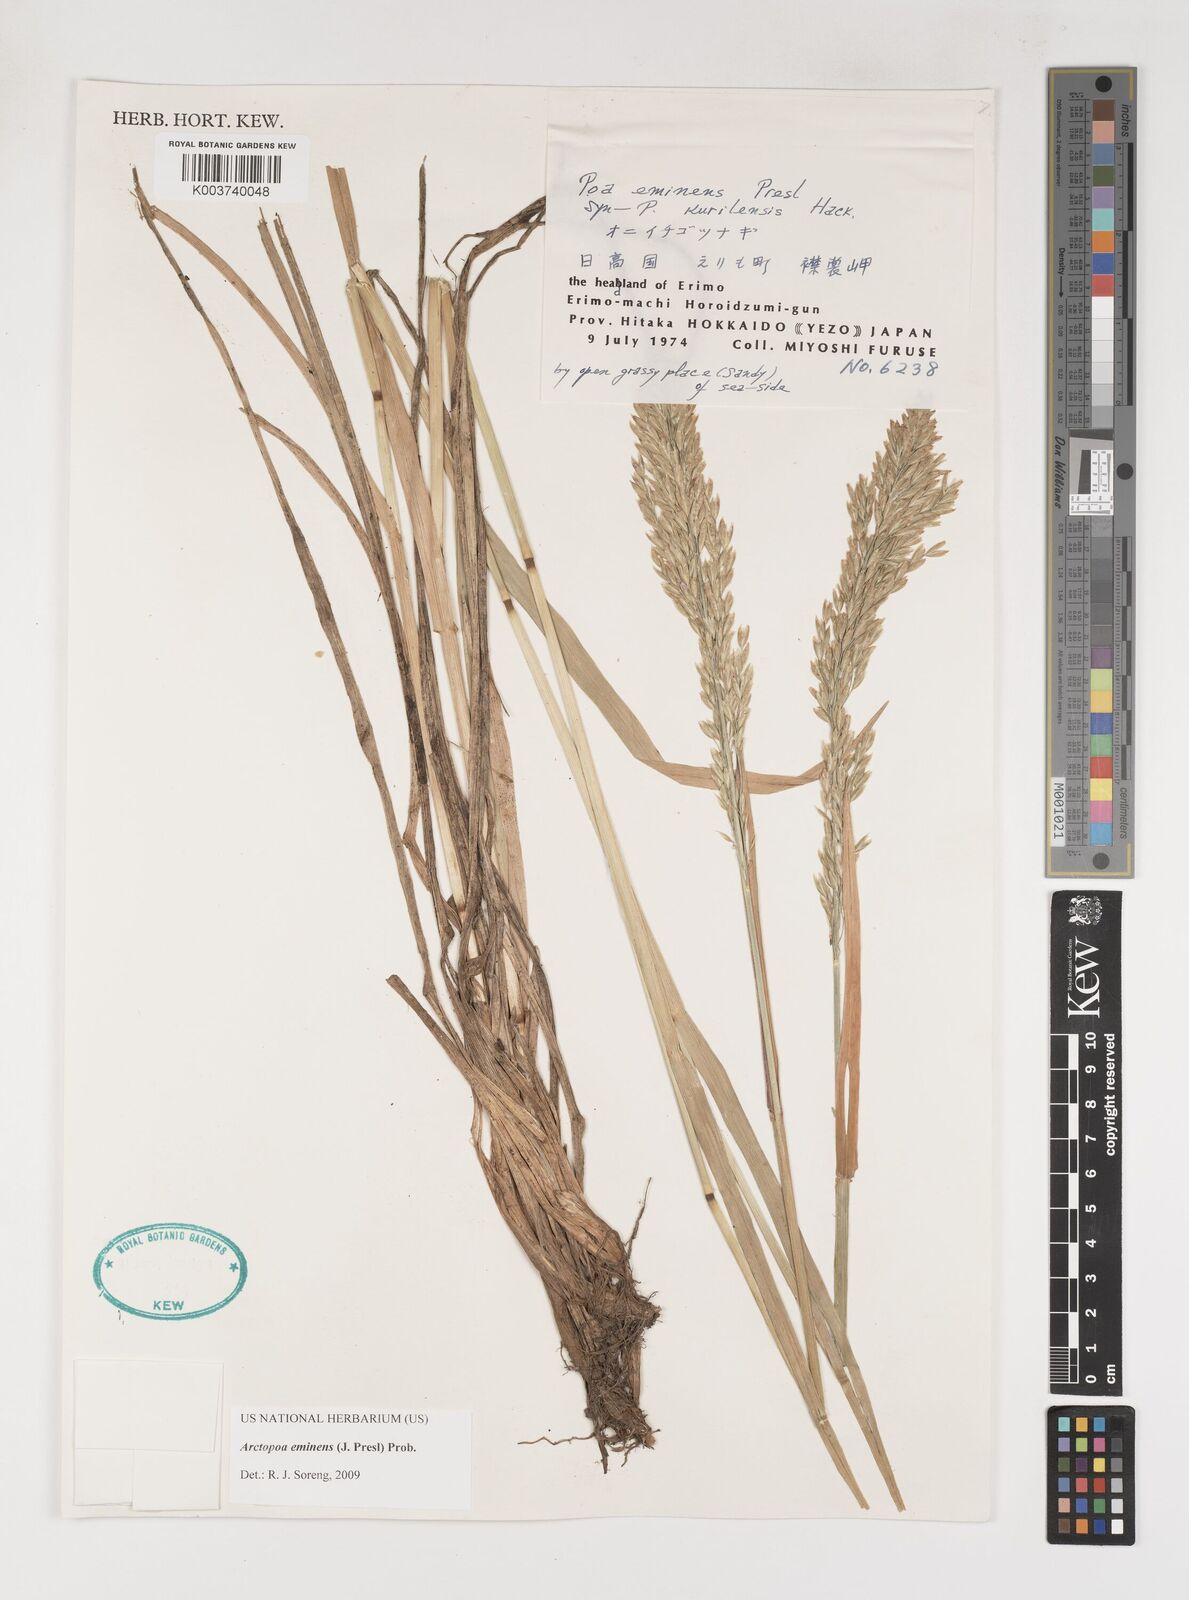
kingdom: Plantae
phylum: Tracheophyta
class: Liliopsida
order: Poales
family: Poaceae
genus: Arctopoa
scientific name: Arctopoa eminens
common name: Eminent bluegrass
